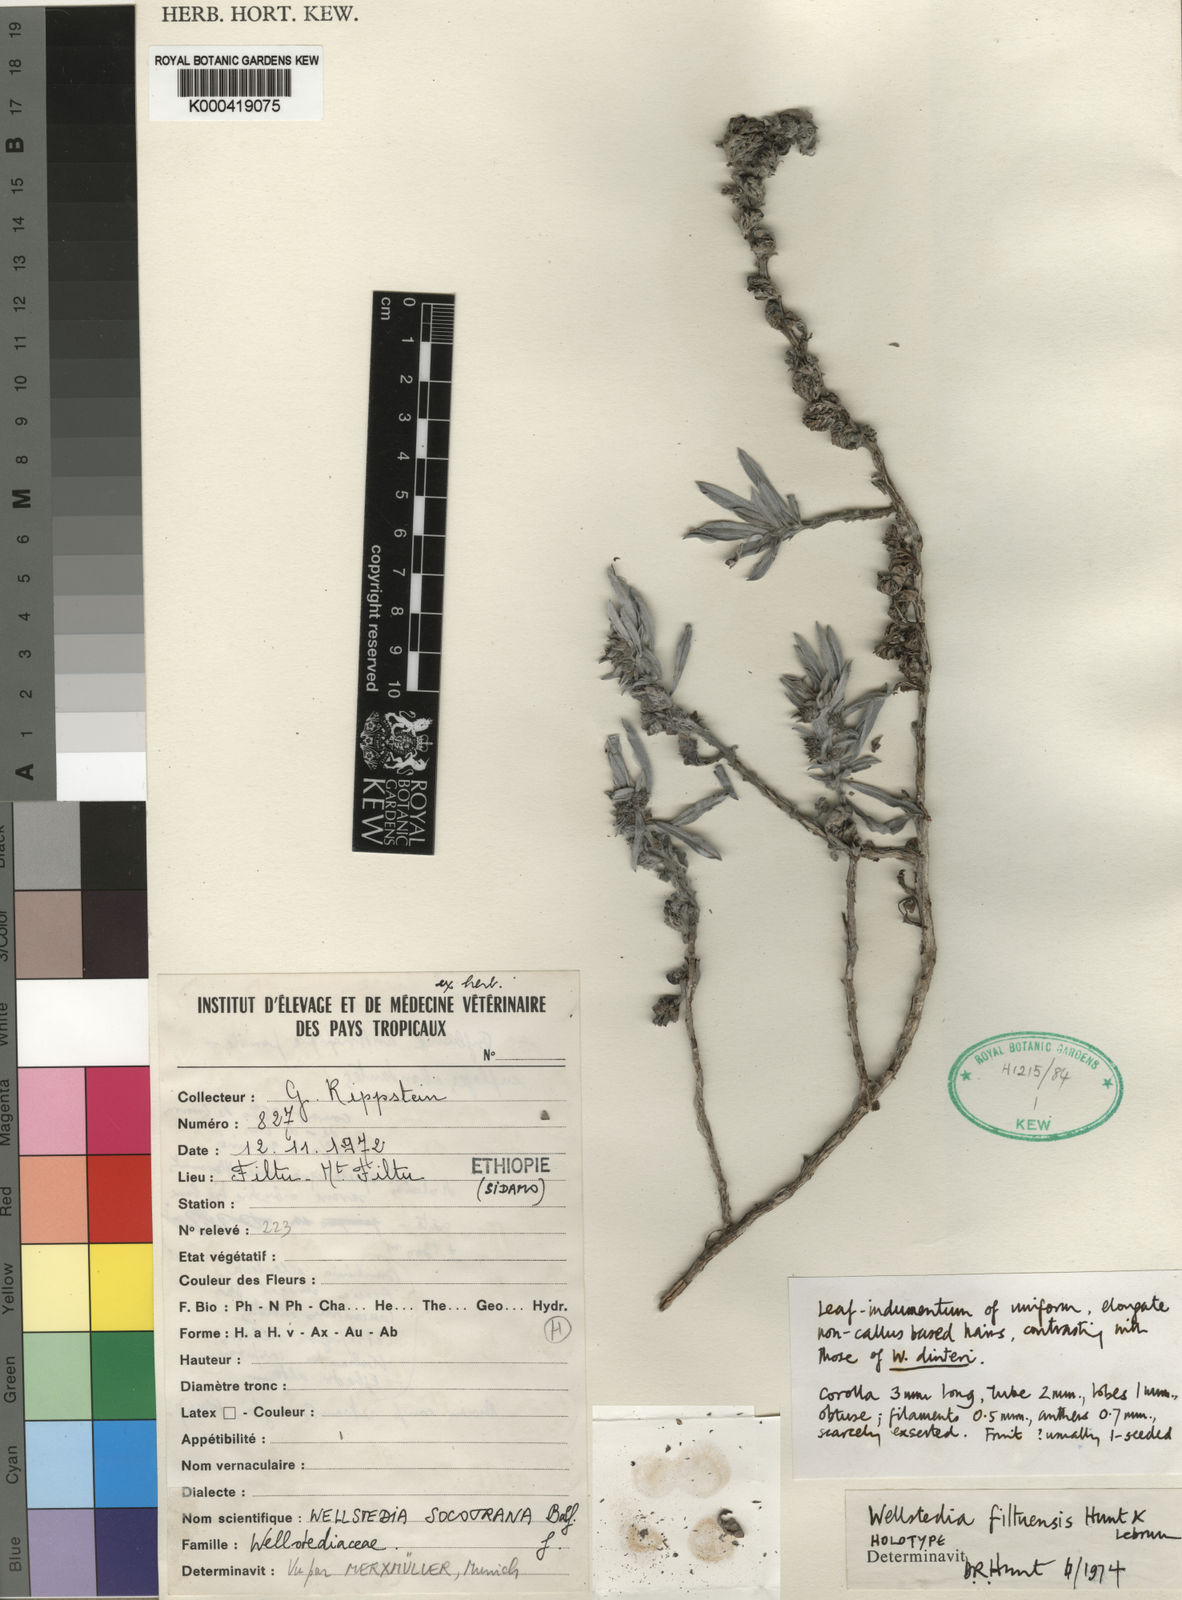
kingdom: Plantae
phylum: Tracheophyta
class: Magnoliopsida
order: Boraginales
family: Wellstediaceae
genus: Wellstedia
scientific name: Wellstedia filtuensis
